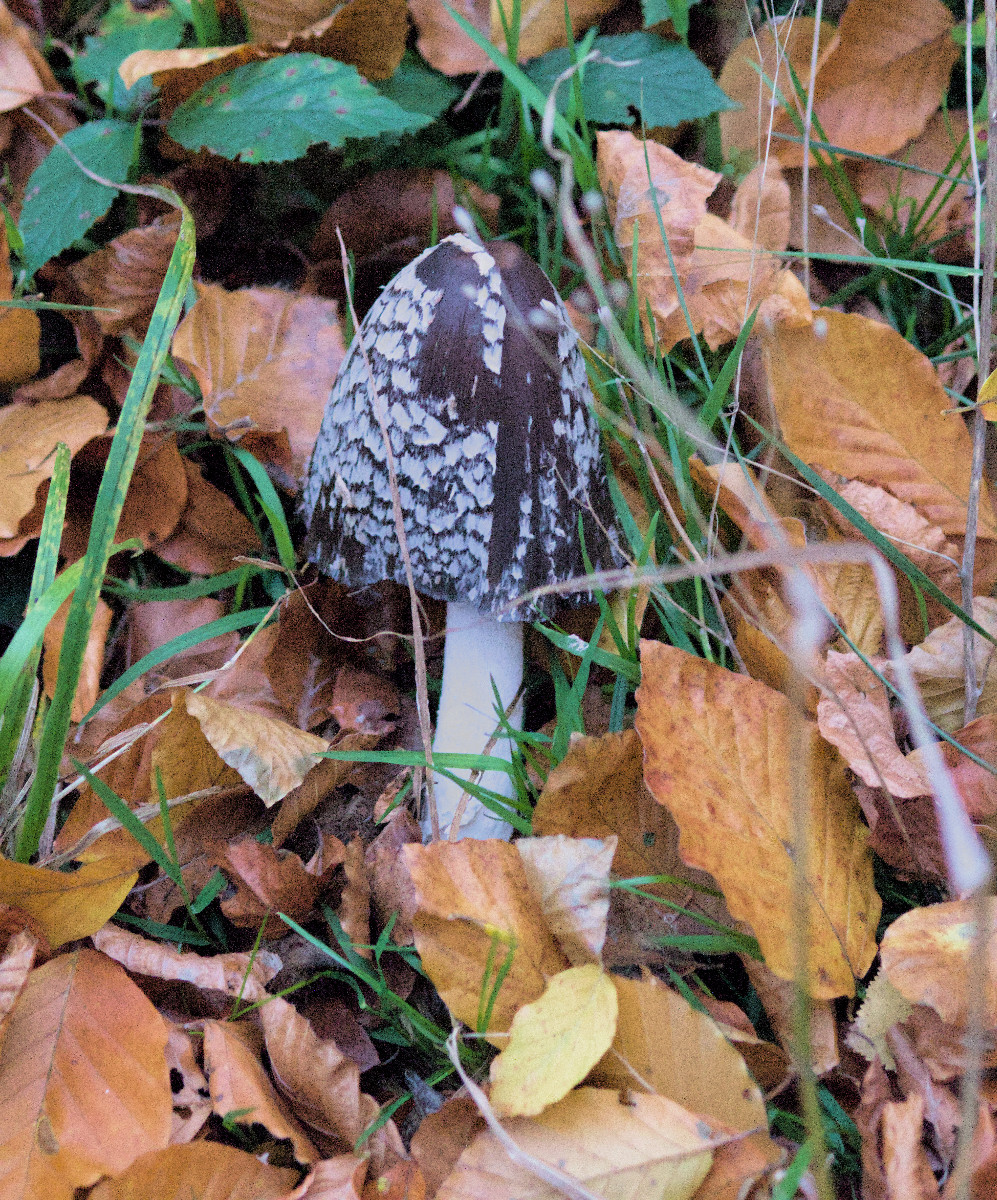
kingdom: Fungi
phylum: Basidiomycota
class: Agaricomycetes
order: Agaricales
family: Psathyrellaceae
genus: Coprinopsis
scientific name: Coprinopsis picacea
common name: skade-blækhat
